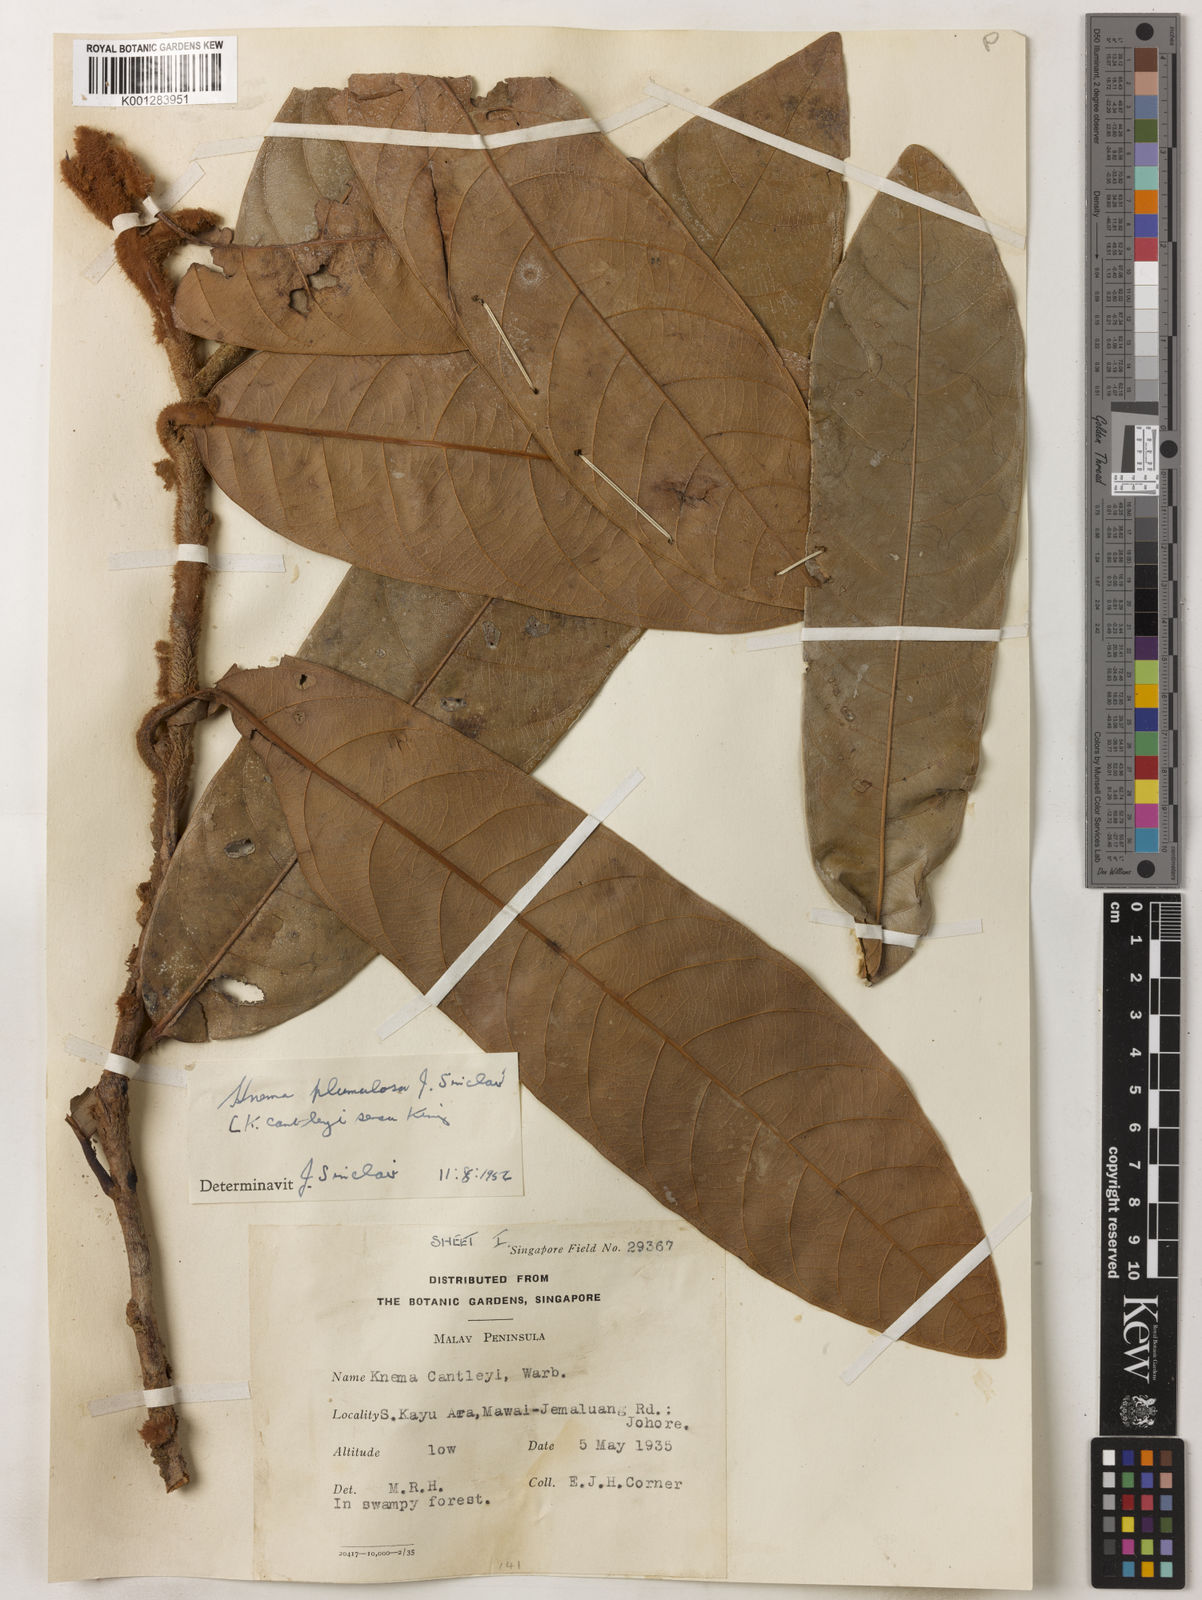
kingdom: Plantae
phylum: Tracheophyta
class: Magnoliopsida
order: Magnoliales
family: Myristicaceae
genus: Knema
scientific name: Knema plumulosa
